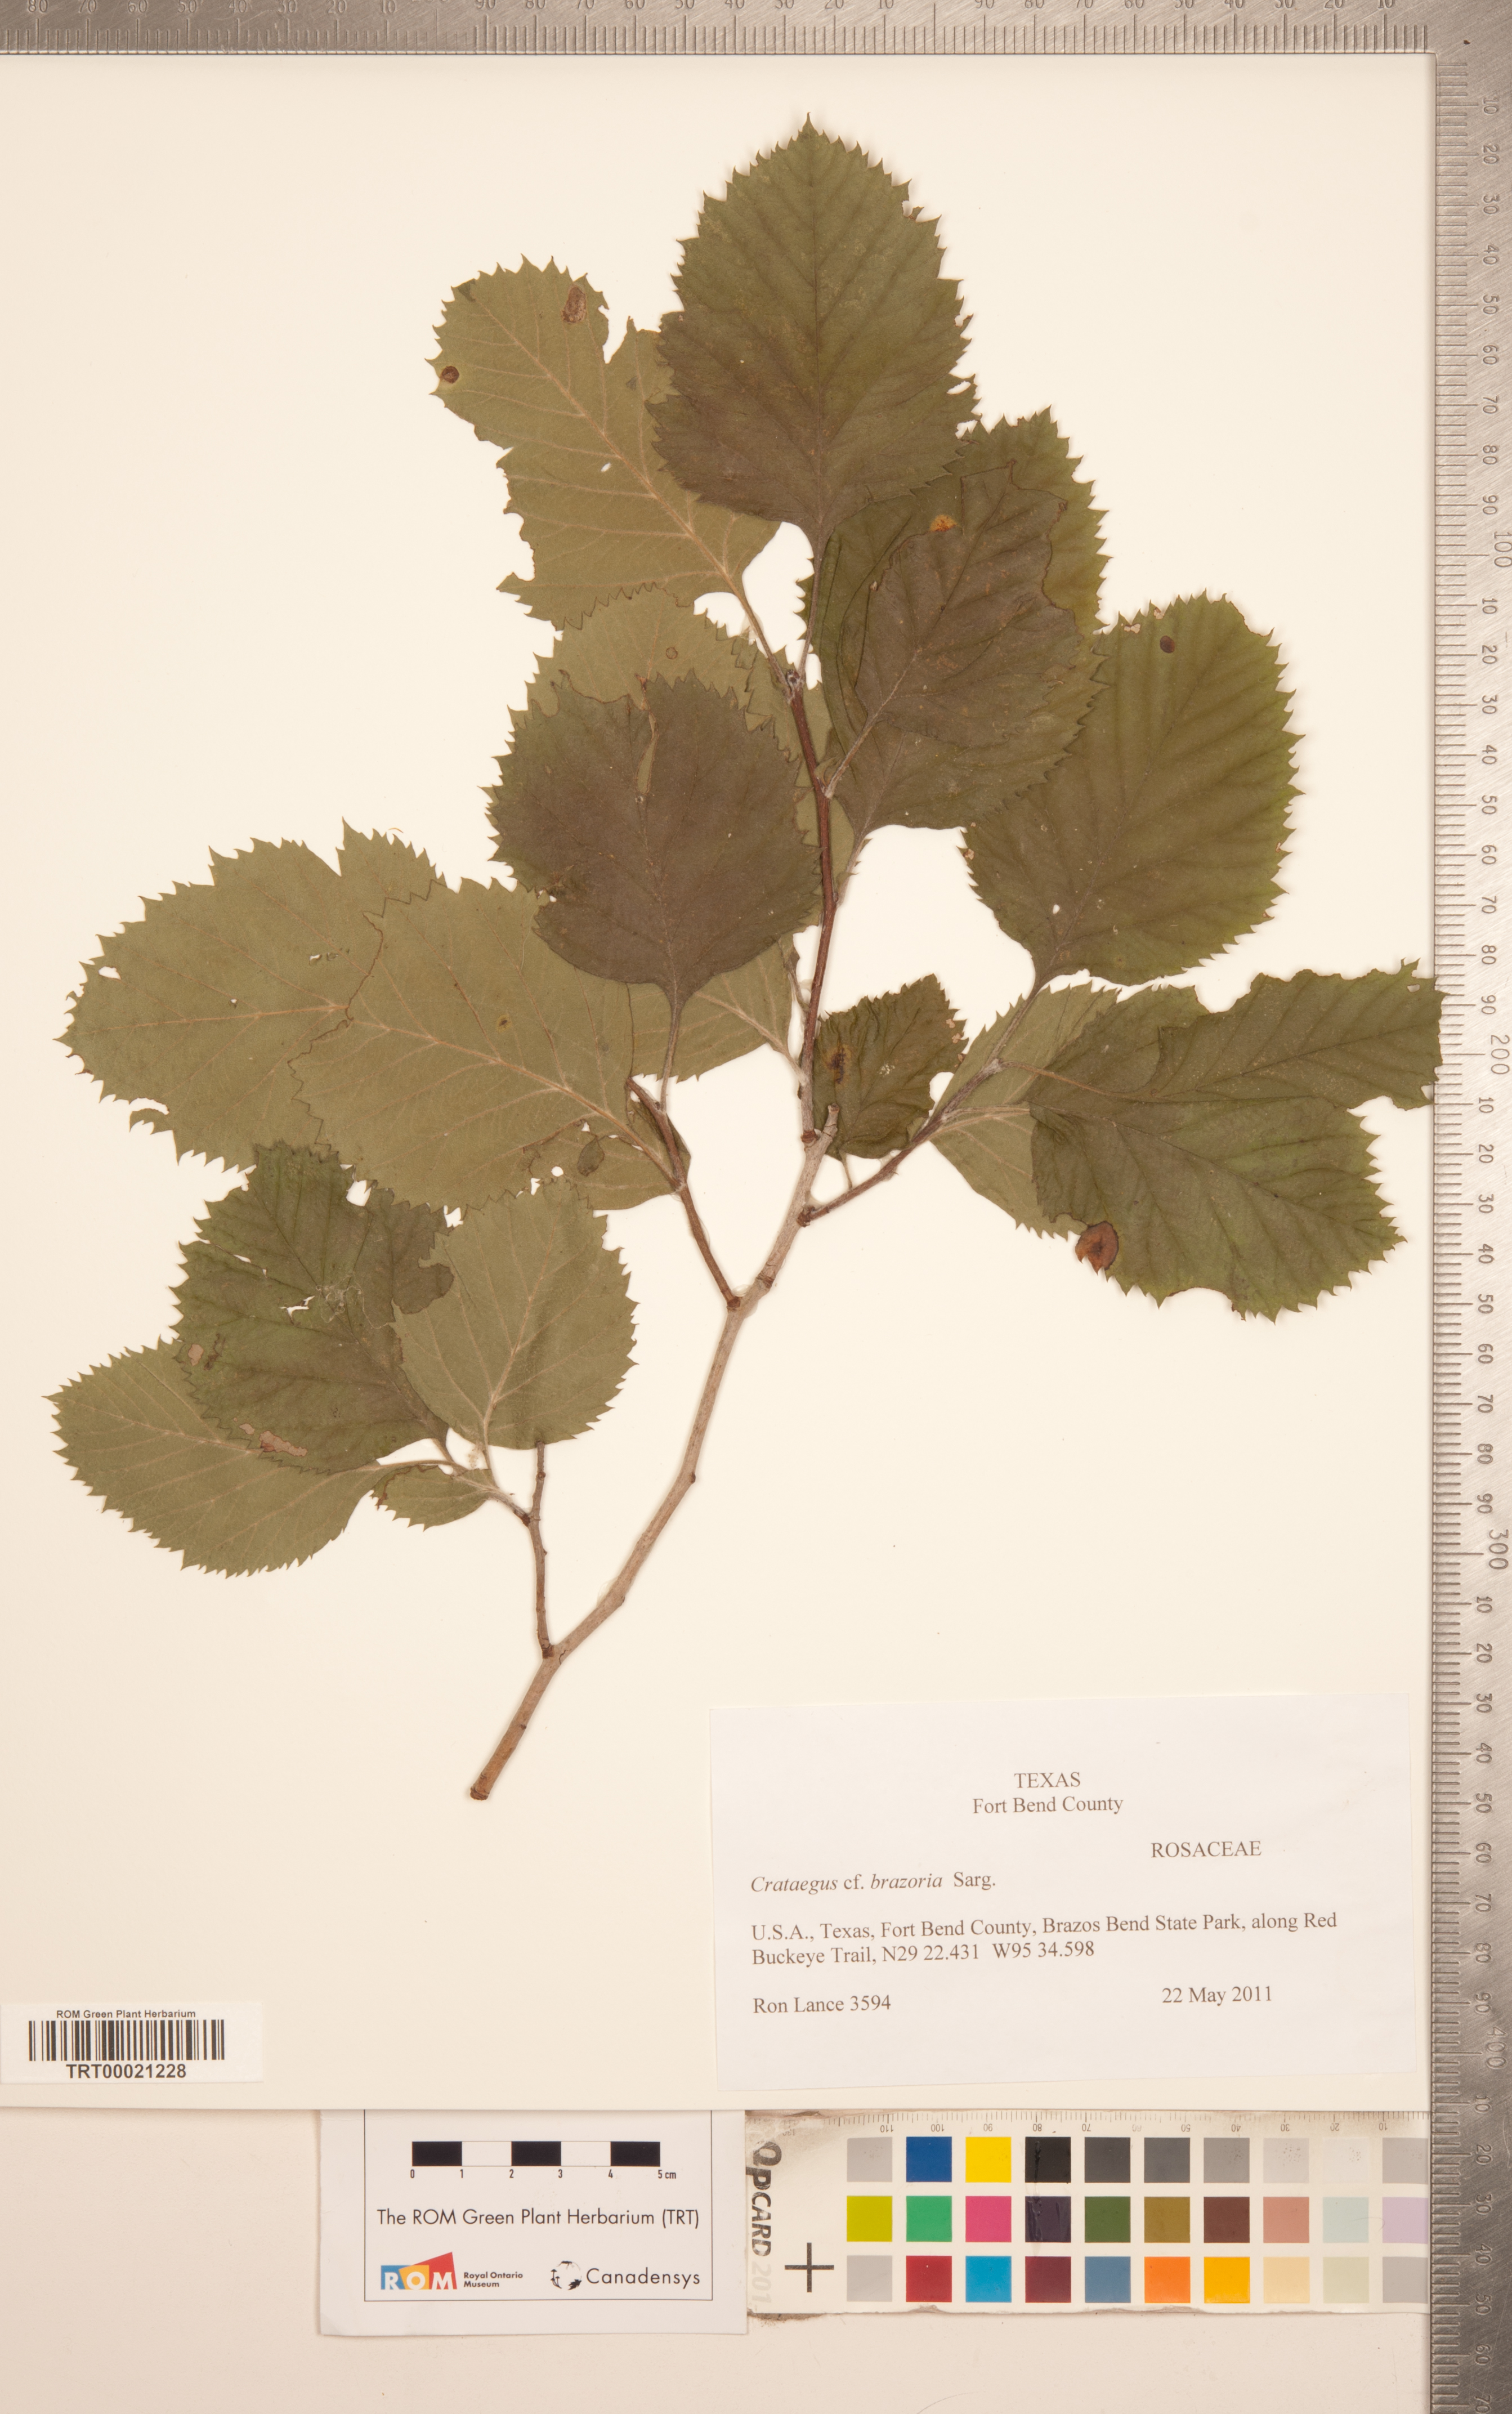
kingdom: Plantae
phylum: Tracheophyta
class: Magnoliopsida
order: Rosales
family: Rosaceae
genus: Crataegus
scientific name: Crataegus brazoria
